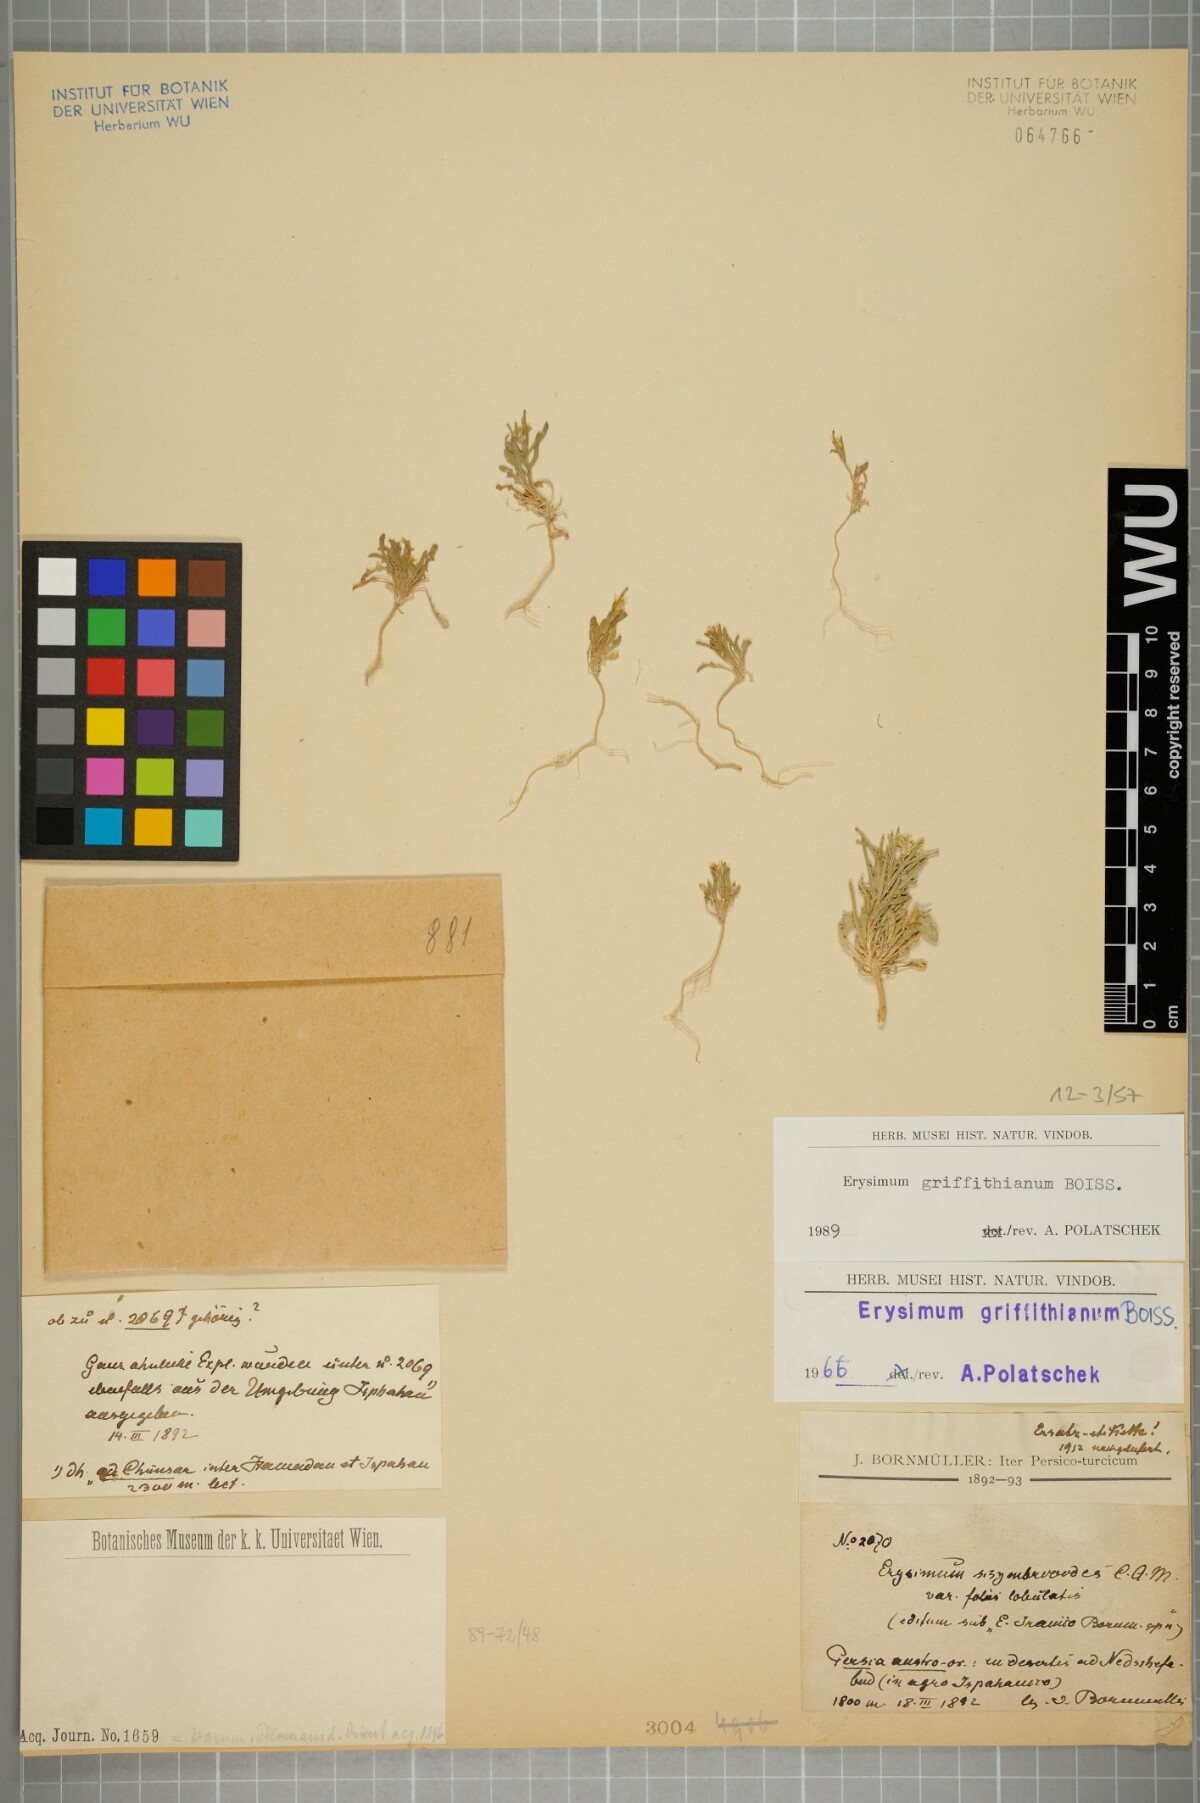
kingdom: Plantae
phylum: Tracheophyta
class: Magnoliopsida
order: Brassicales
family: Brassicaceae
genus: Erysimum
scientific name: Erysimum sisymbrioides
